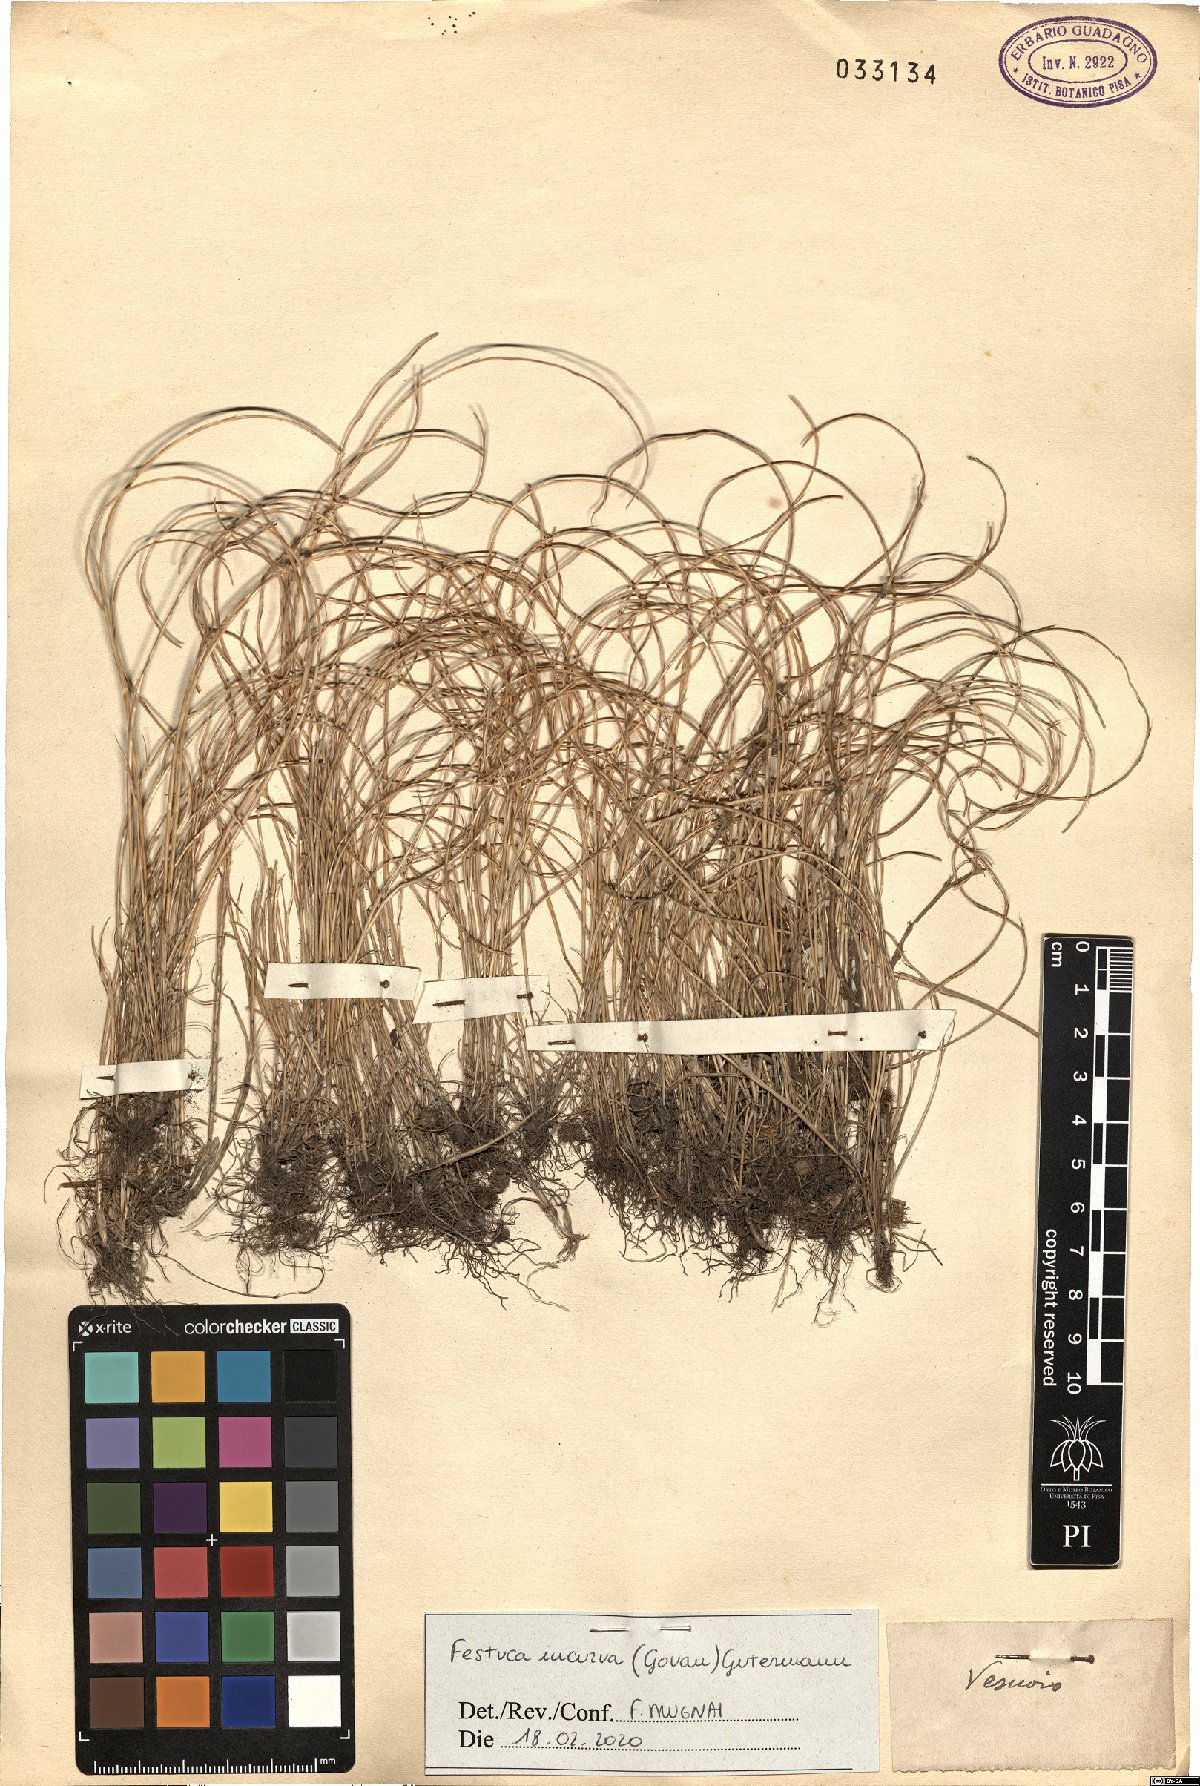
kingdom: Plantae
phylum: Tracheophyta
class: Liliopsida
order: Poales
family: Poaceae
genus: Festuca
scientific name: Festuca incurva
